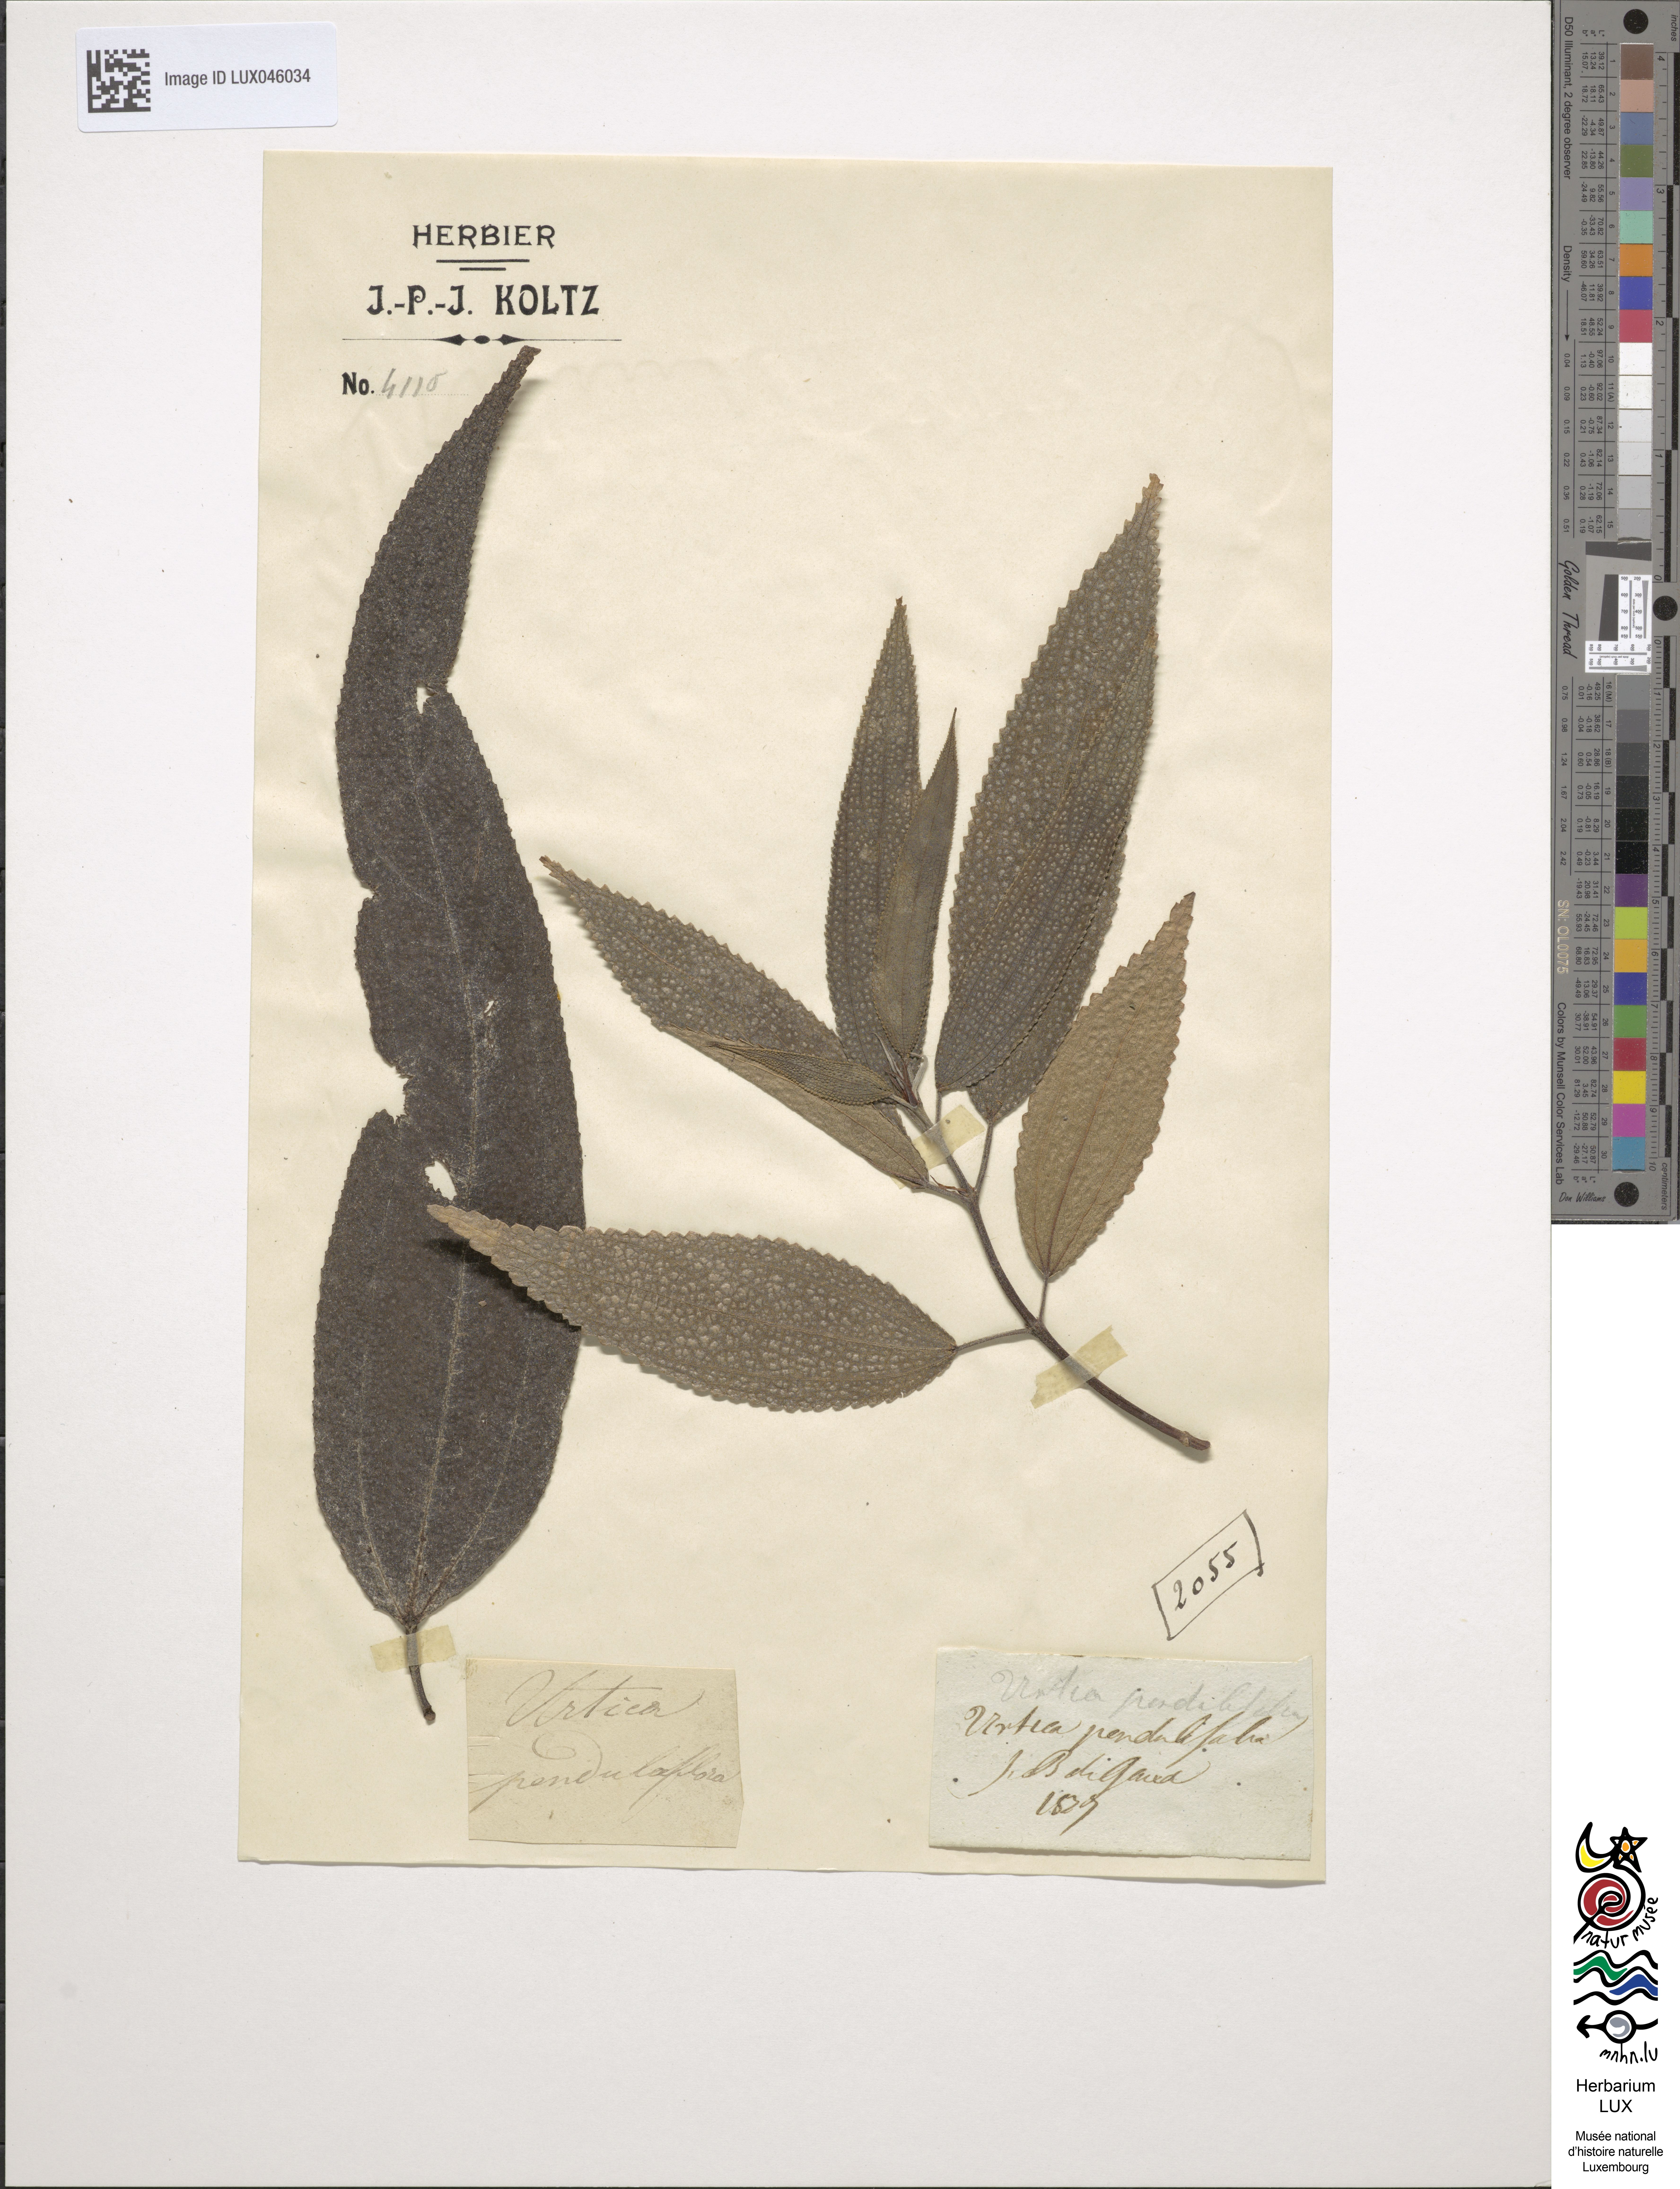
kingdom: Plantae
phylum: Tracheophyta
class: Magnoliopsida
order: Rosales
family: Urticaceae
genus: Boehmeria
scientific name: Boehmeria penduliflora
